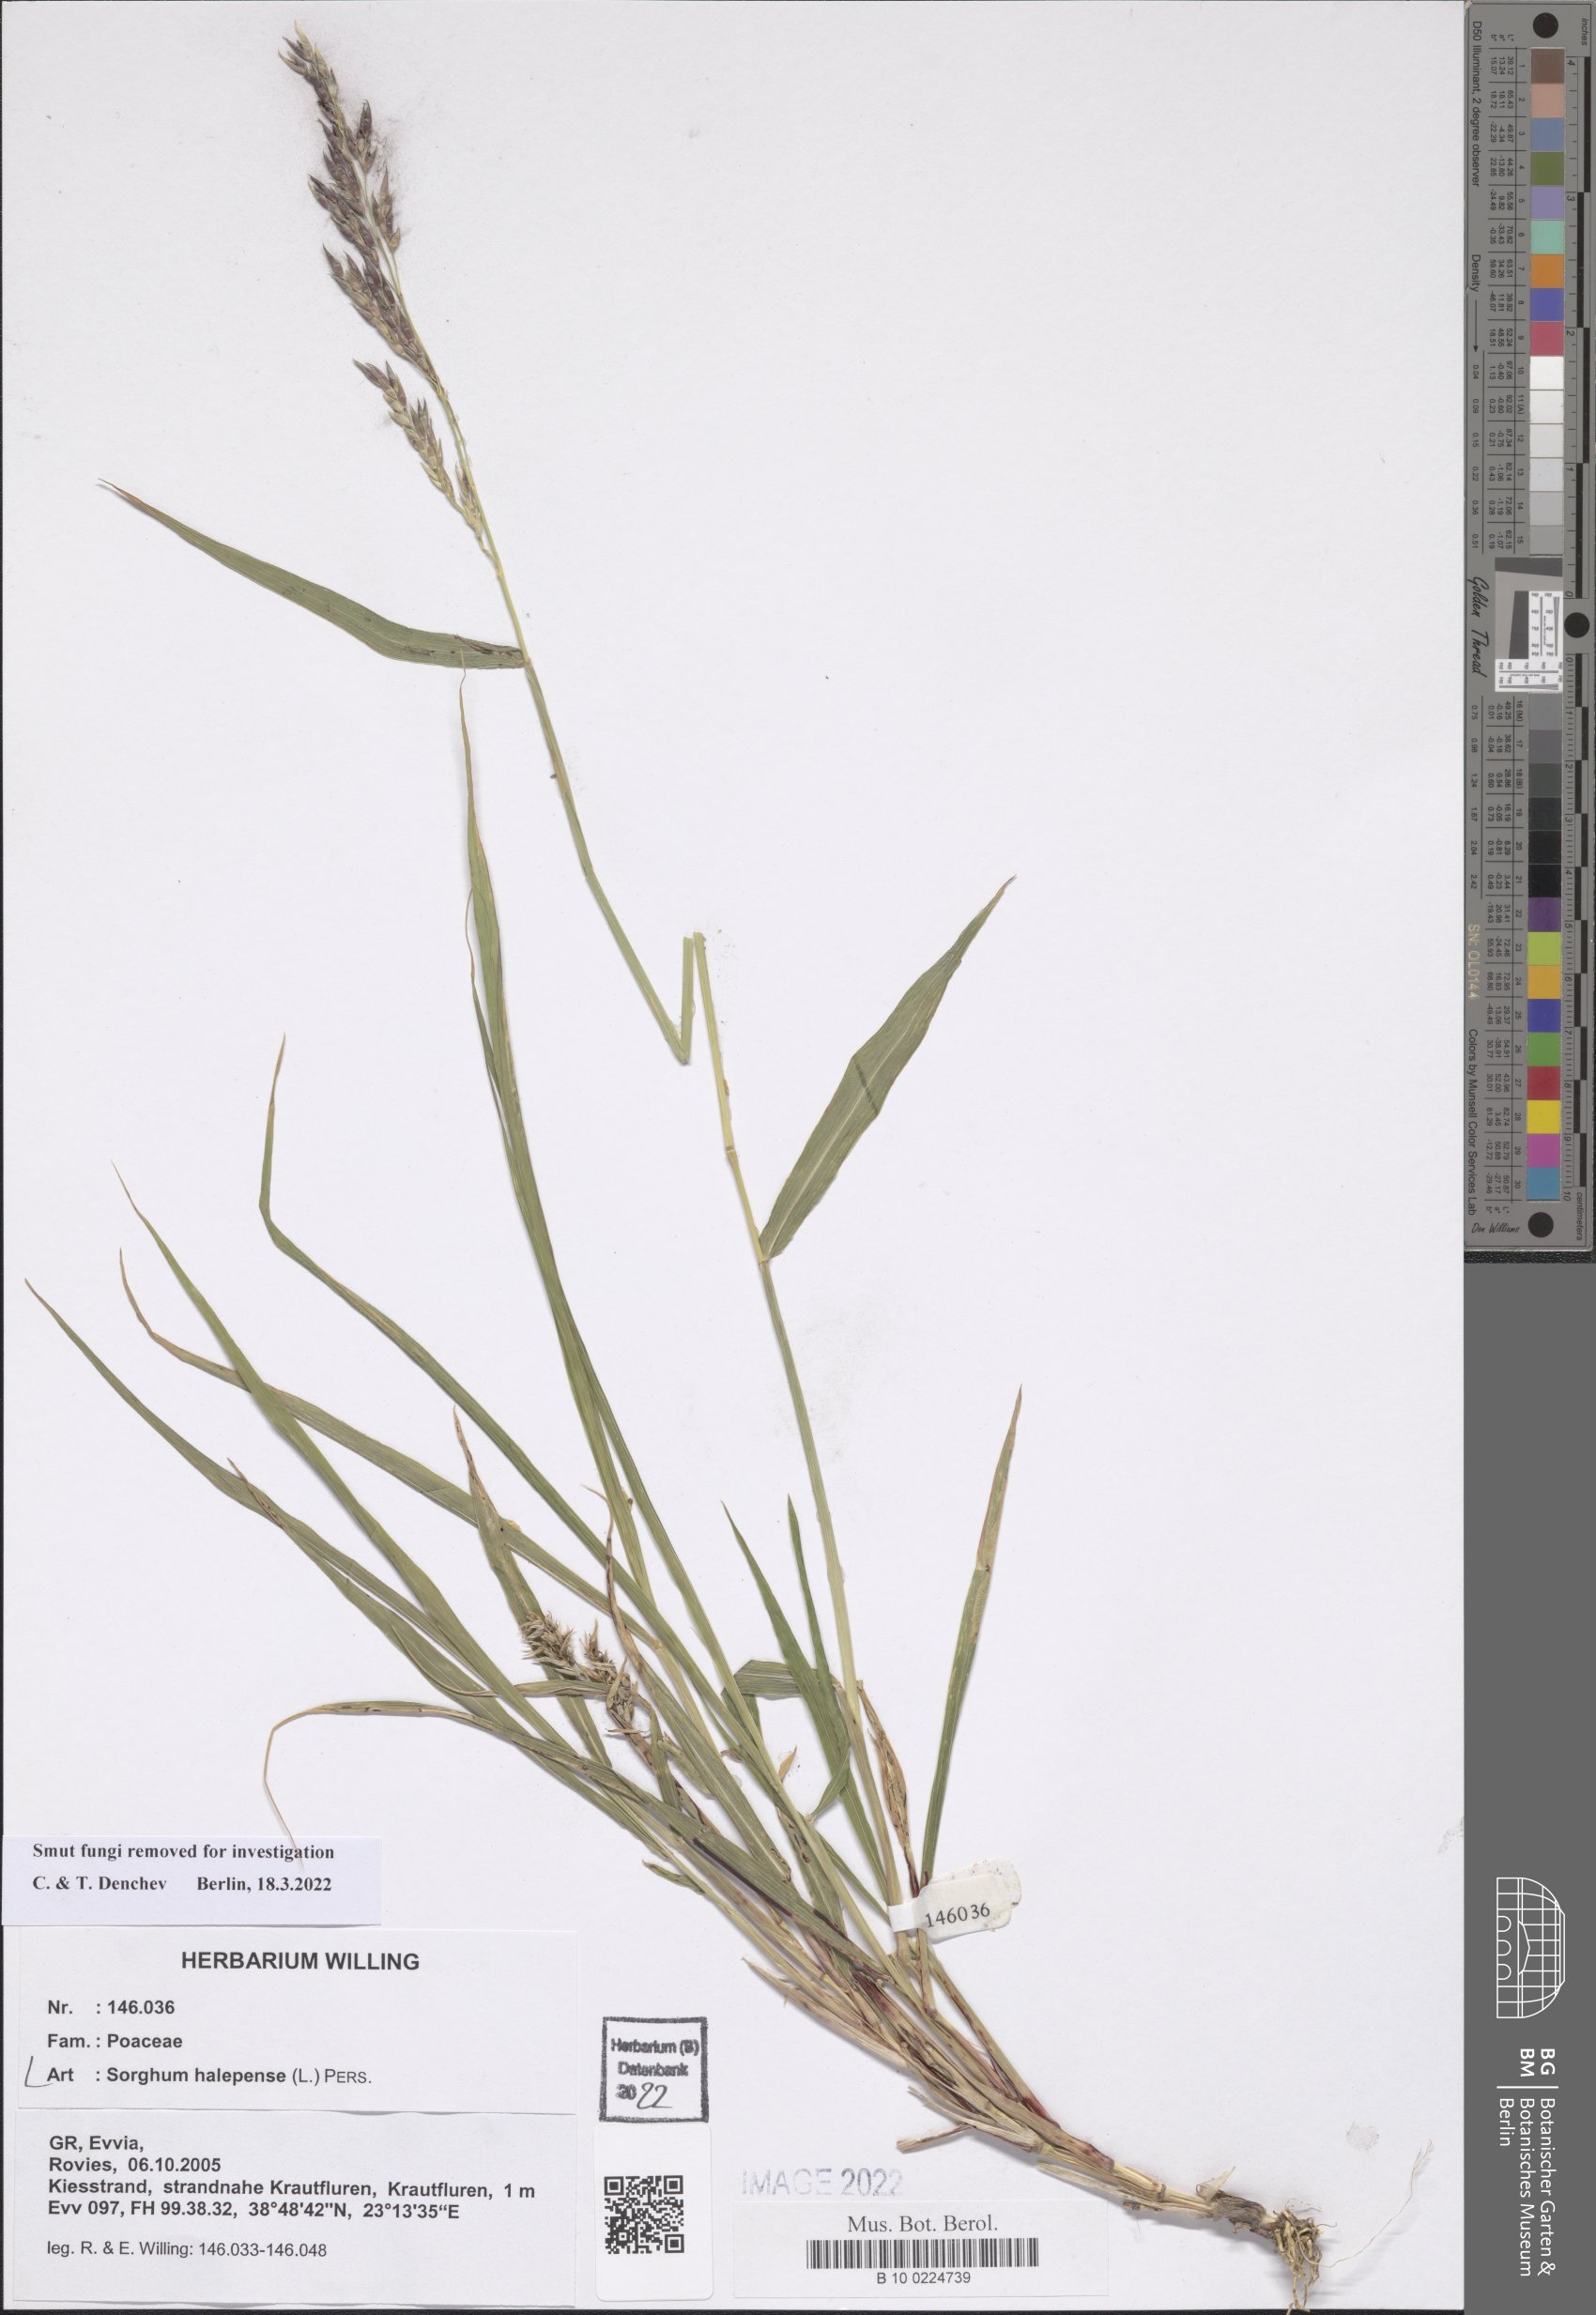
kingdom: Plantae
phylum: Tracheophyta
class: Liliopsida
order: Poales
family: Poaceae
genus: Sorghum
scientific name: Sorghum halepense
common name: Johnson-grass
